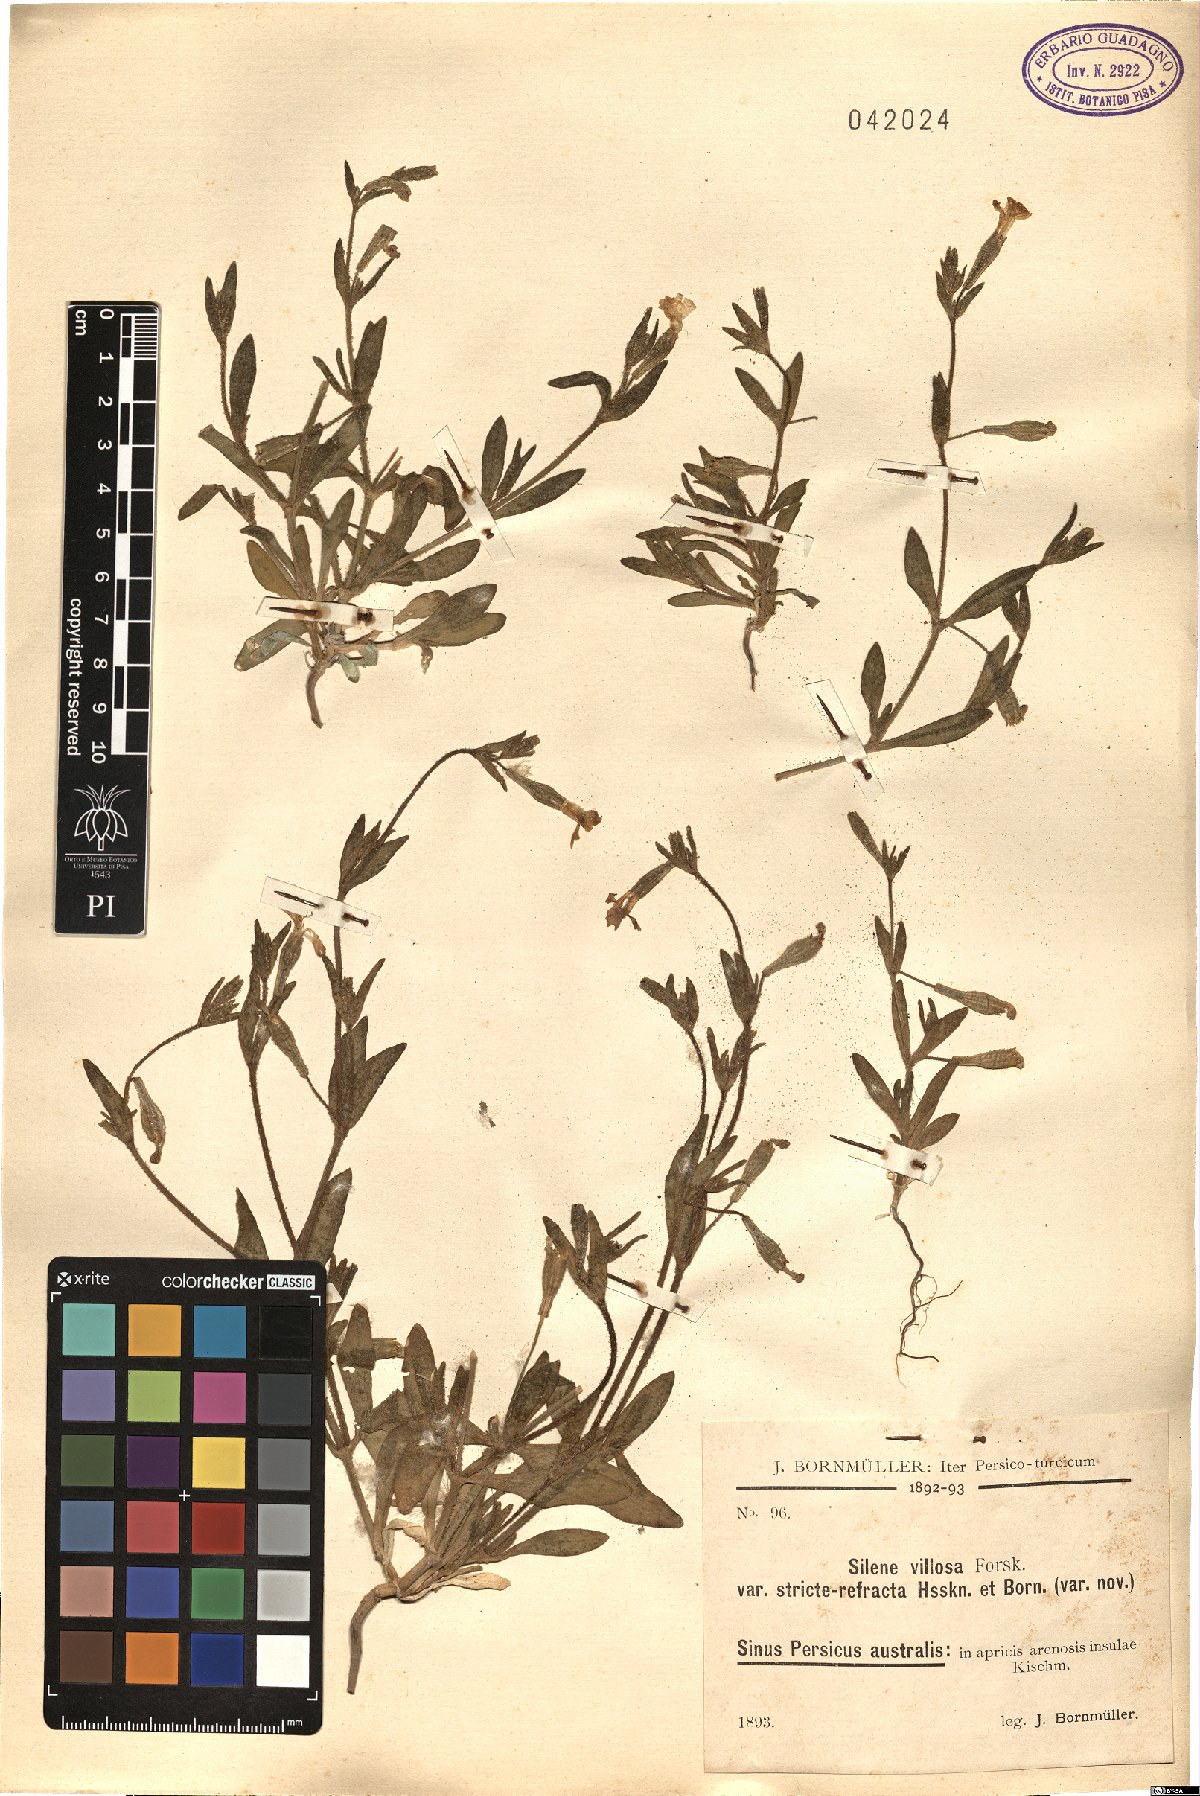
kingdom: Plantae
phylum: Tracheophyta
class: Magnoliopsida
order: Caryophyllales
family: Caryophyllaceae
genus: Silene
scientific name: Silene villosa
